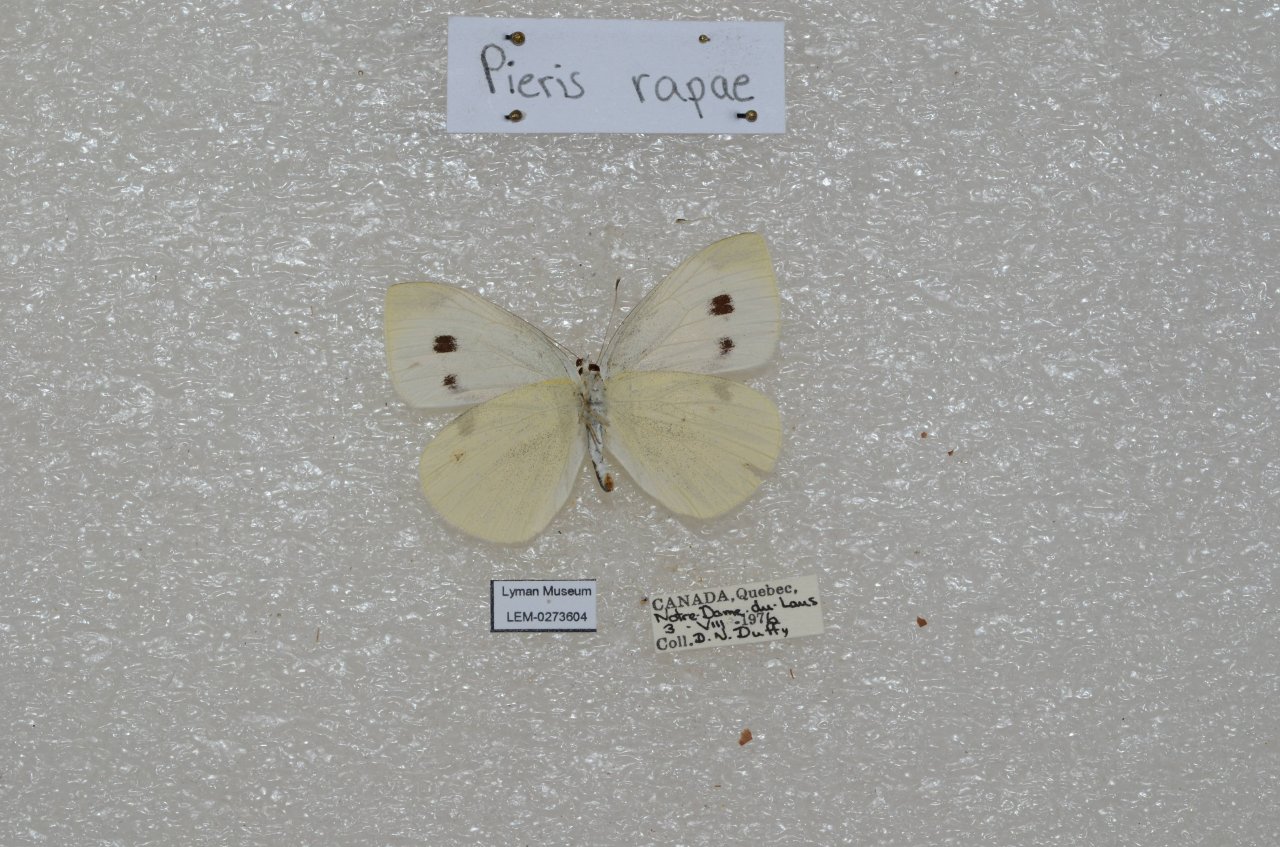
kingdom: Animalia
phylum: Arthropoda
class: Insecta
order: Lepidoptera
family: Pieridae
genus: Pieris
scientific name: Pieris rapae
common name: Cabbage White
